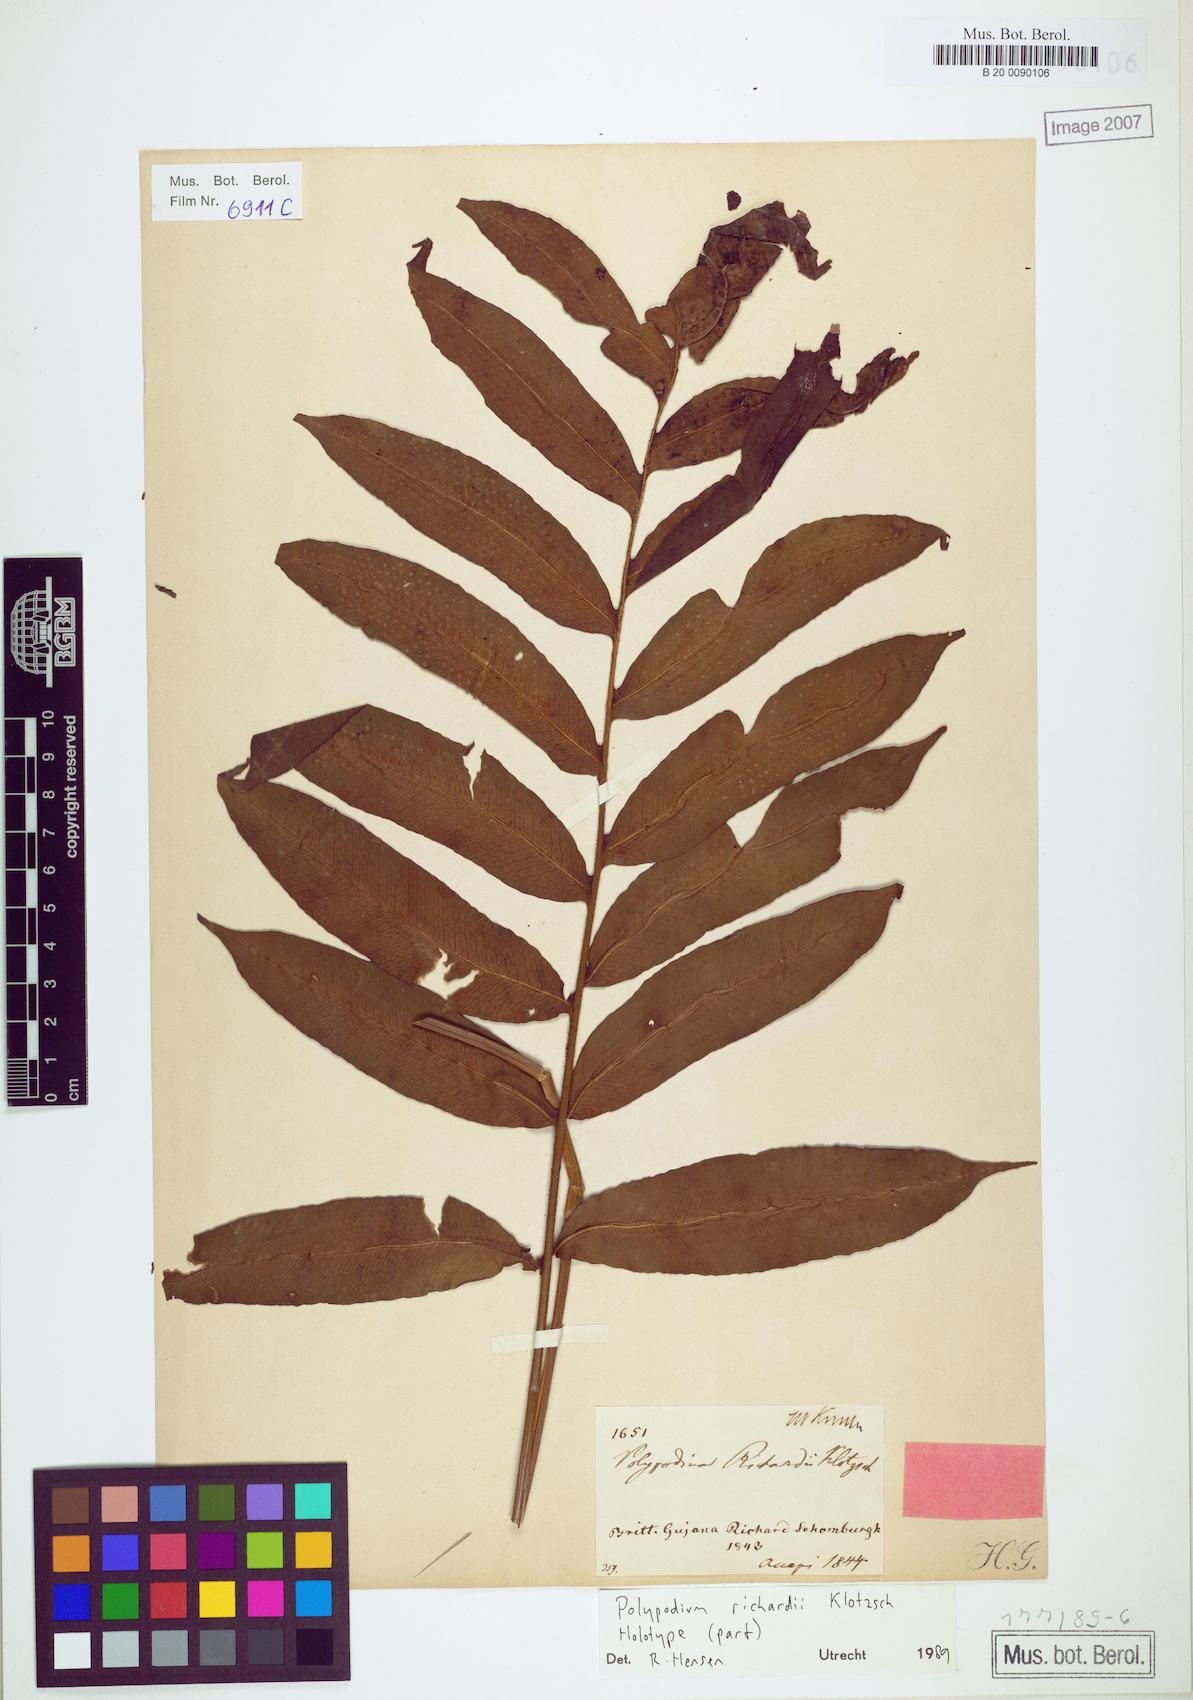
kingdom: Plantae
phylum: Tracheophyta
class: Polypodiopsida
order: Polypodiales
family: Polypodiaceae
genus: Serpocaulon
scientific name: Serpocaulon richardii
